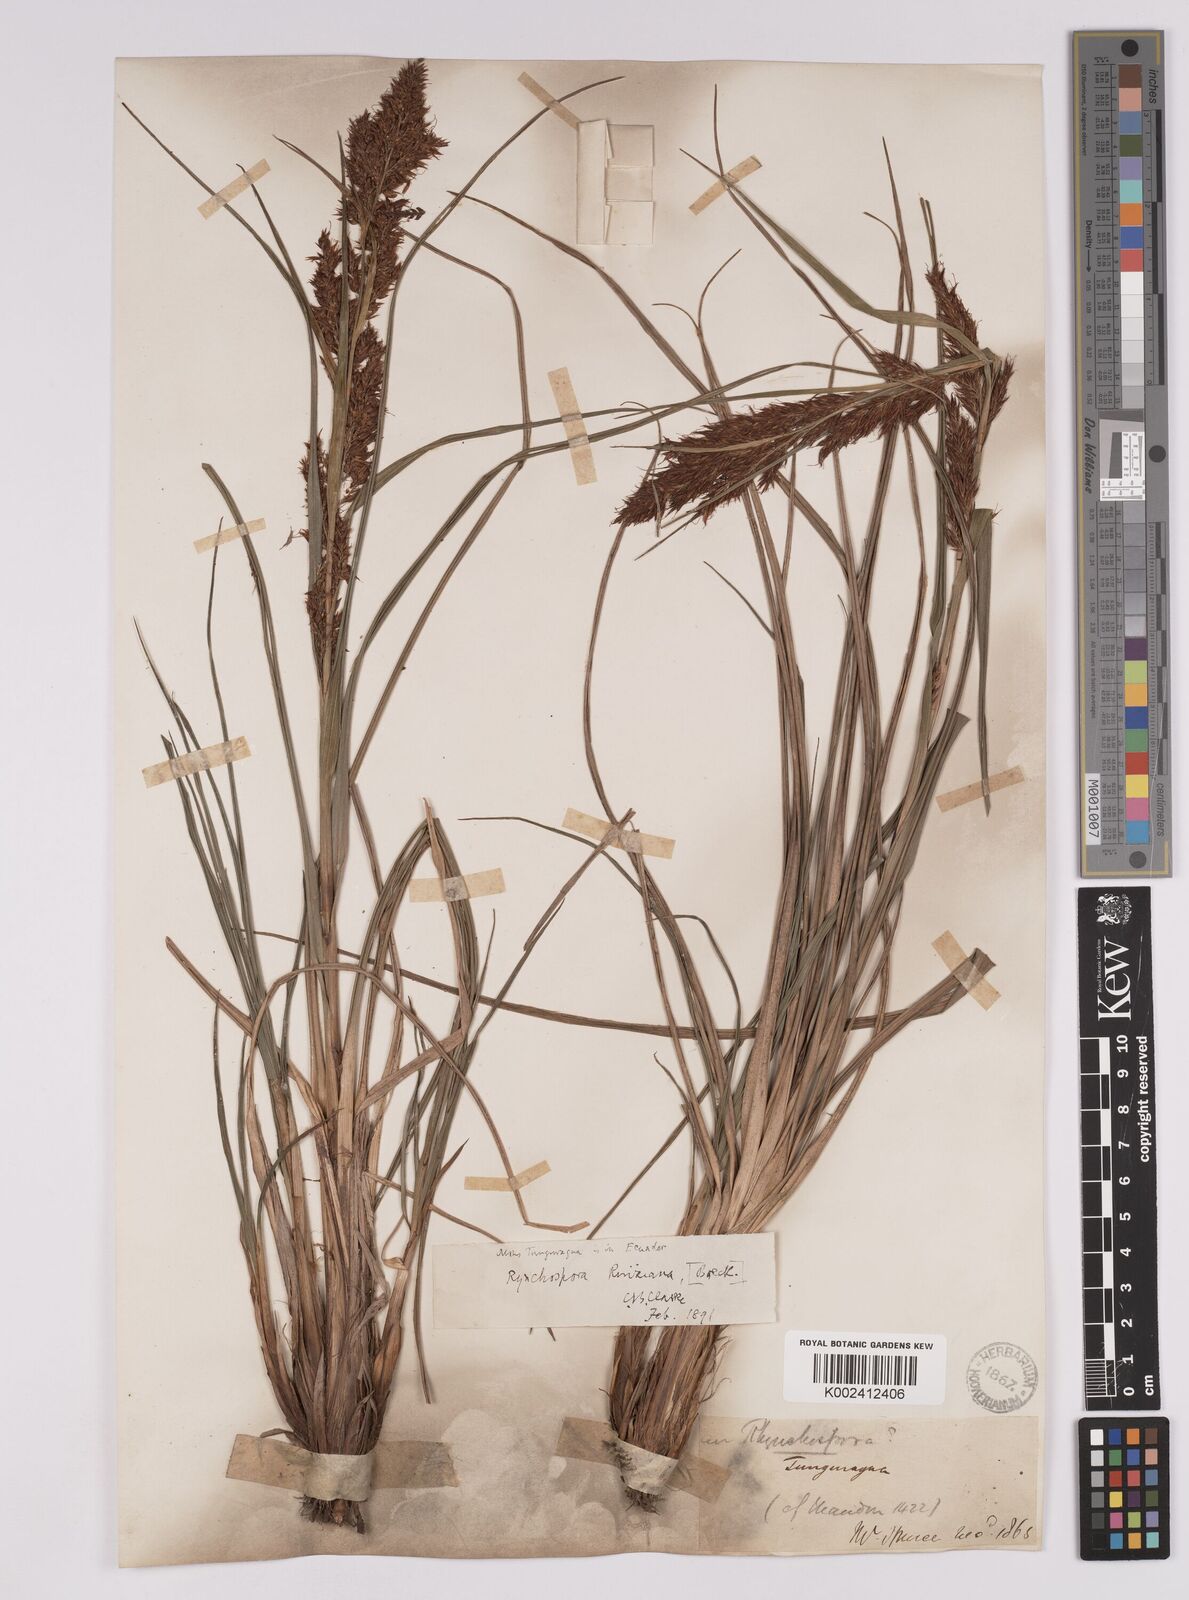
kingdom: Plantae
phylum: Tracheophyta
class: Liliopsida
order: Poales
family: Cyperaceae
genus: Rhynchospora
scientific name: Rhynchospora ruiziana
